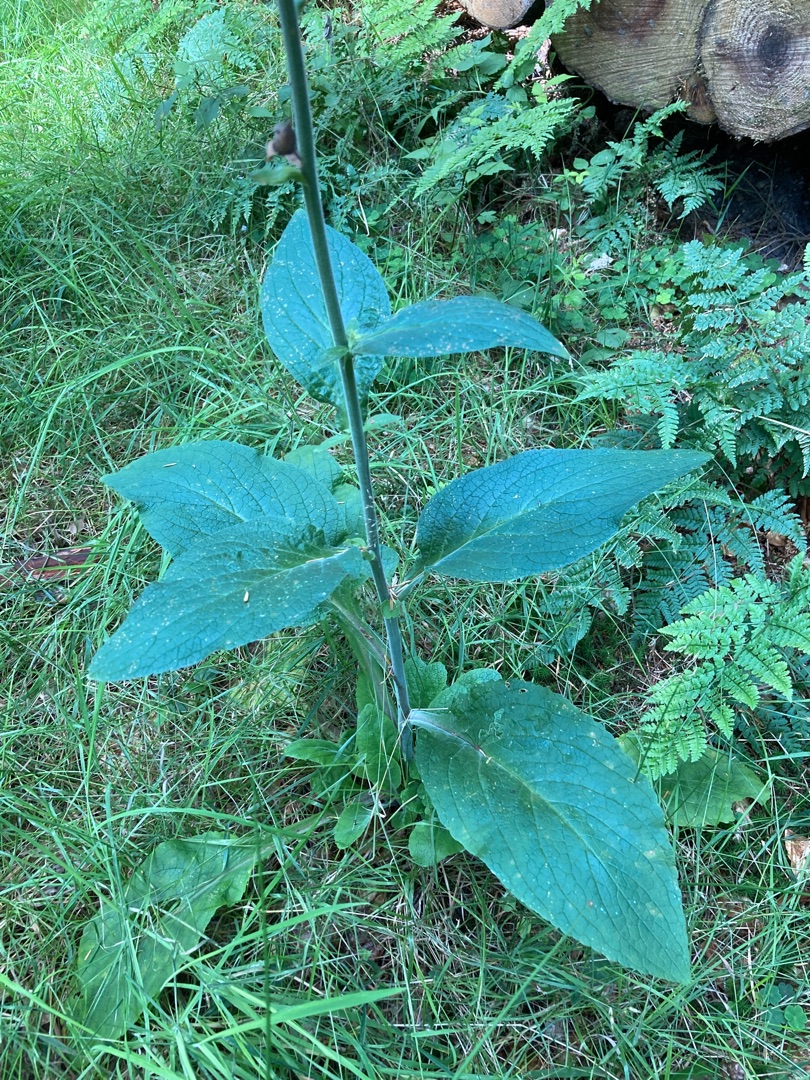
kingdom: Plantae
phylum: Tracheophyta
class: Magnoliopsida
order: Lamiales
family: Plantaginaceae
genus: Digitalis
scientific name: Digitalis purpurea
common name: Almindelig fingerbøl
